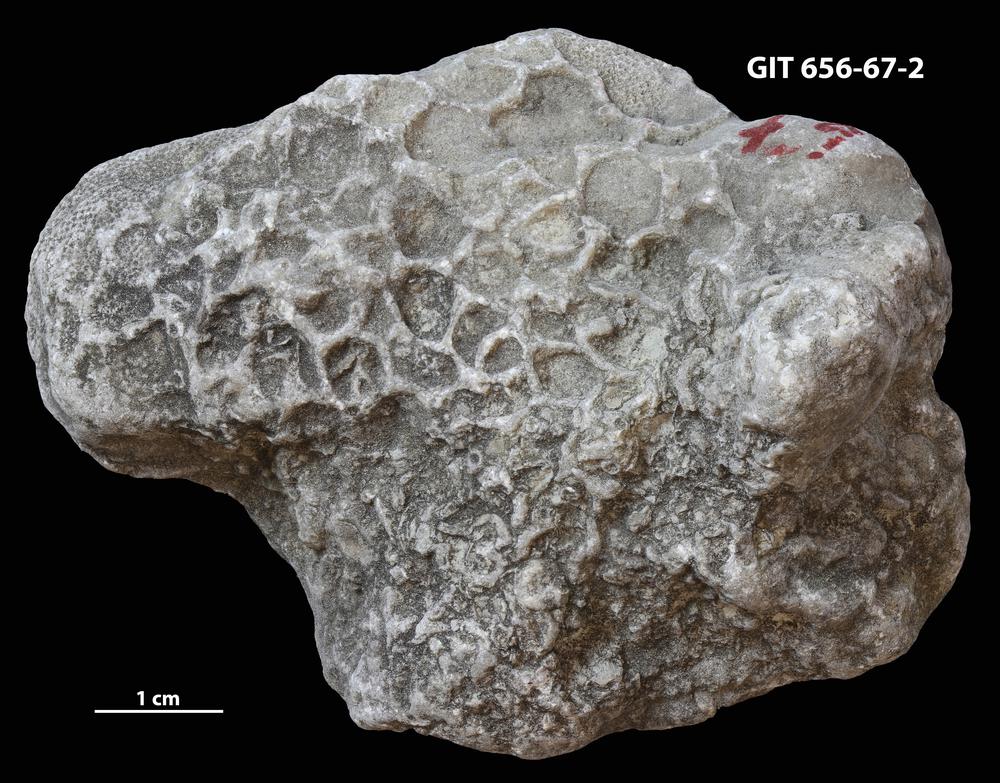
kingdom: Animalia
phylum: Cnidaria
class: Anthozoa
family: Auloporidae
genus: Aulopora
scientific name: Aulopora
